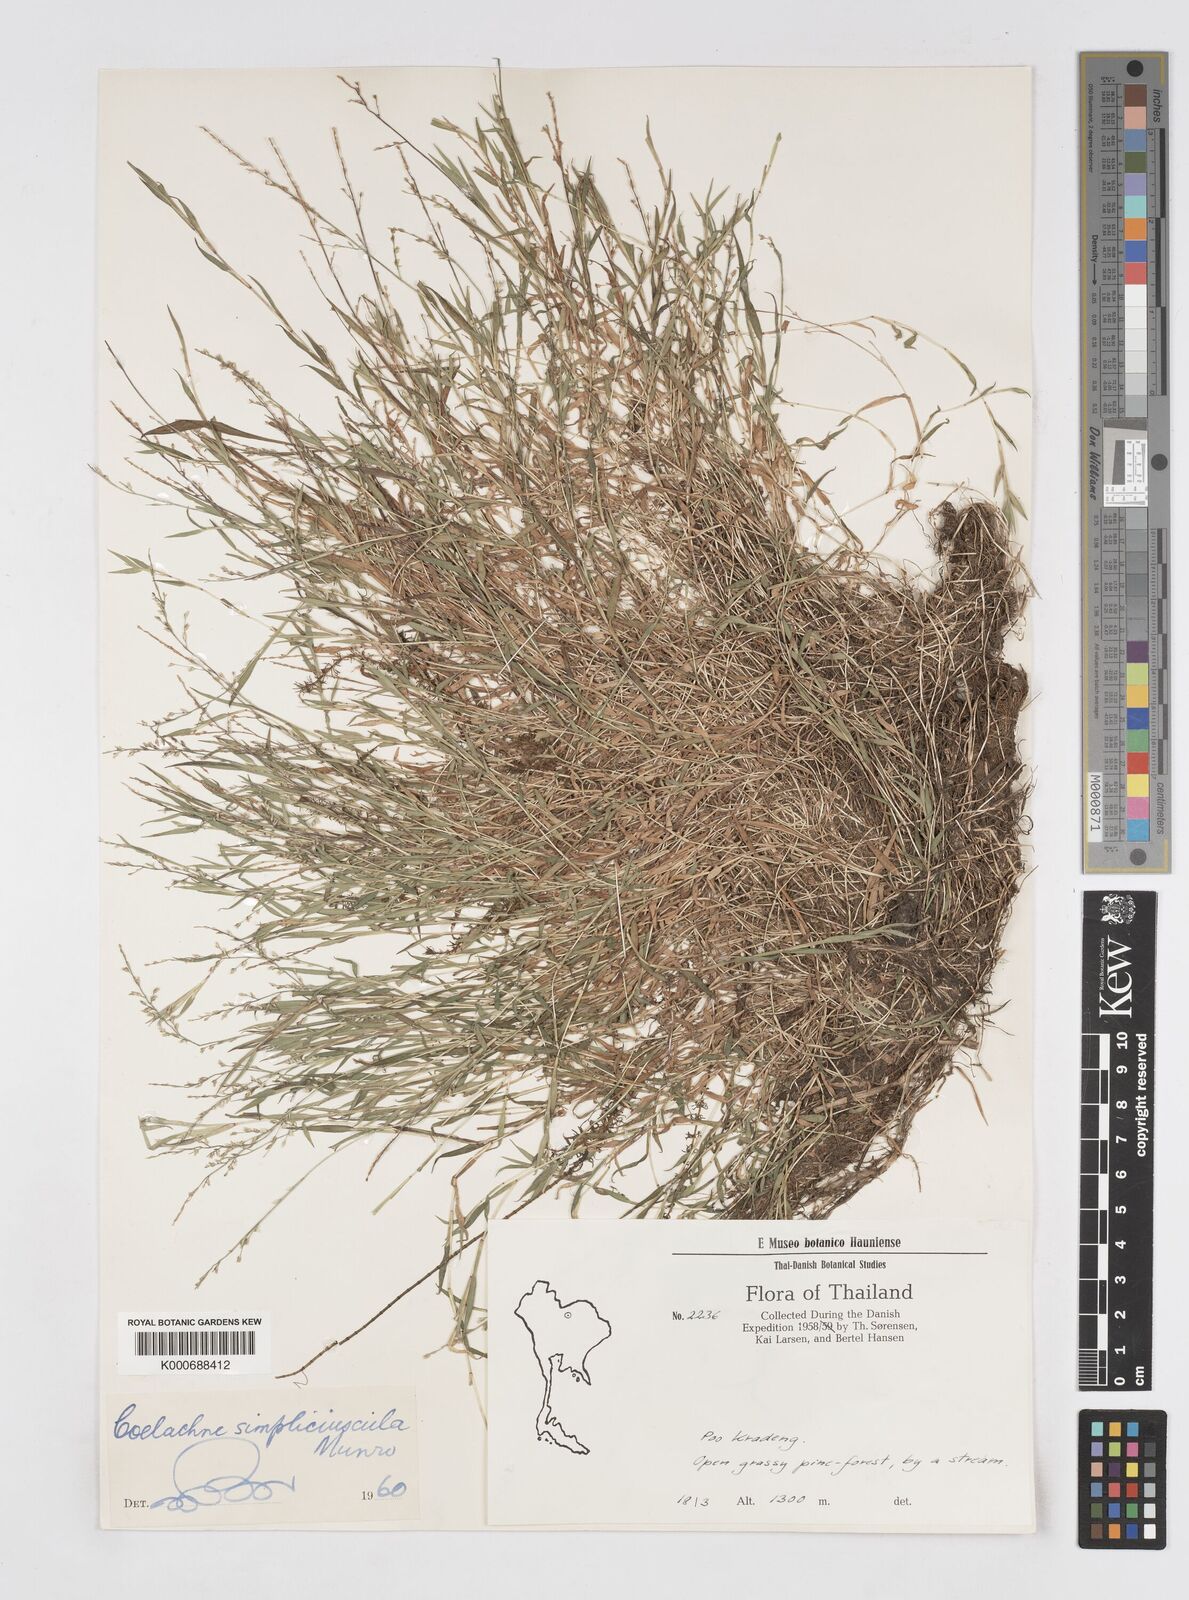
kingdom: Plantae
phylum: Tracheophyta
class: Liliopsida
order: Poales
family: Poaceae
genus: Coelachne
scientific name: Coelachne simpliciuscula
